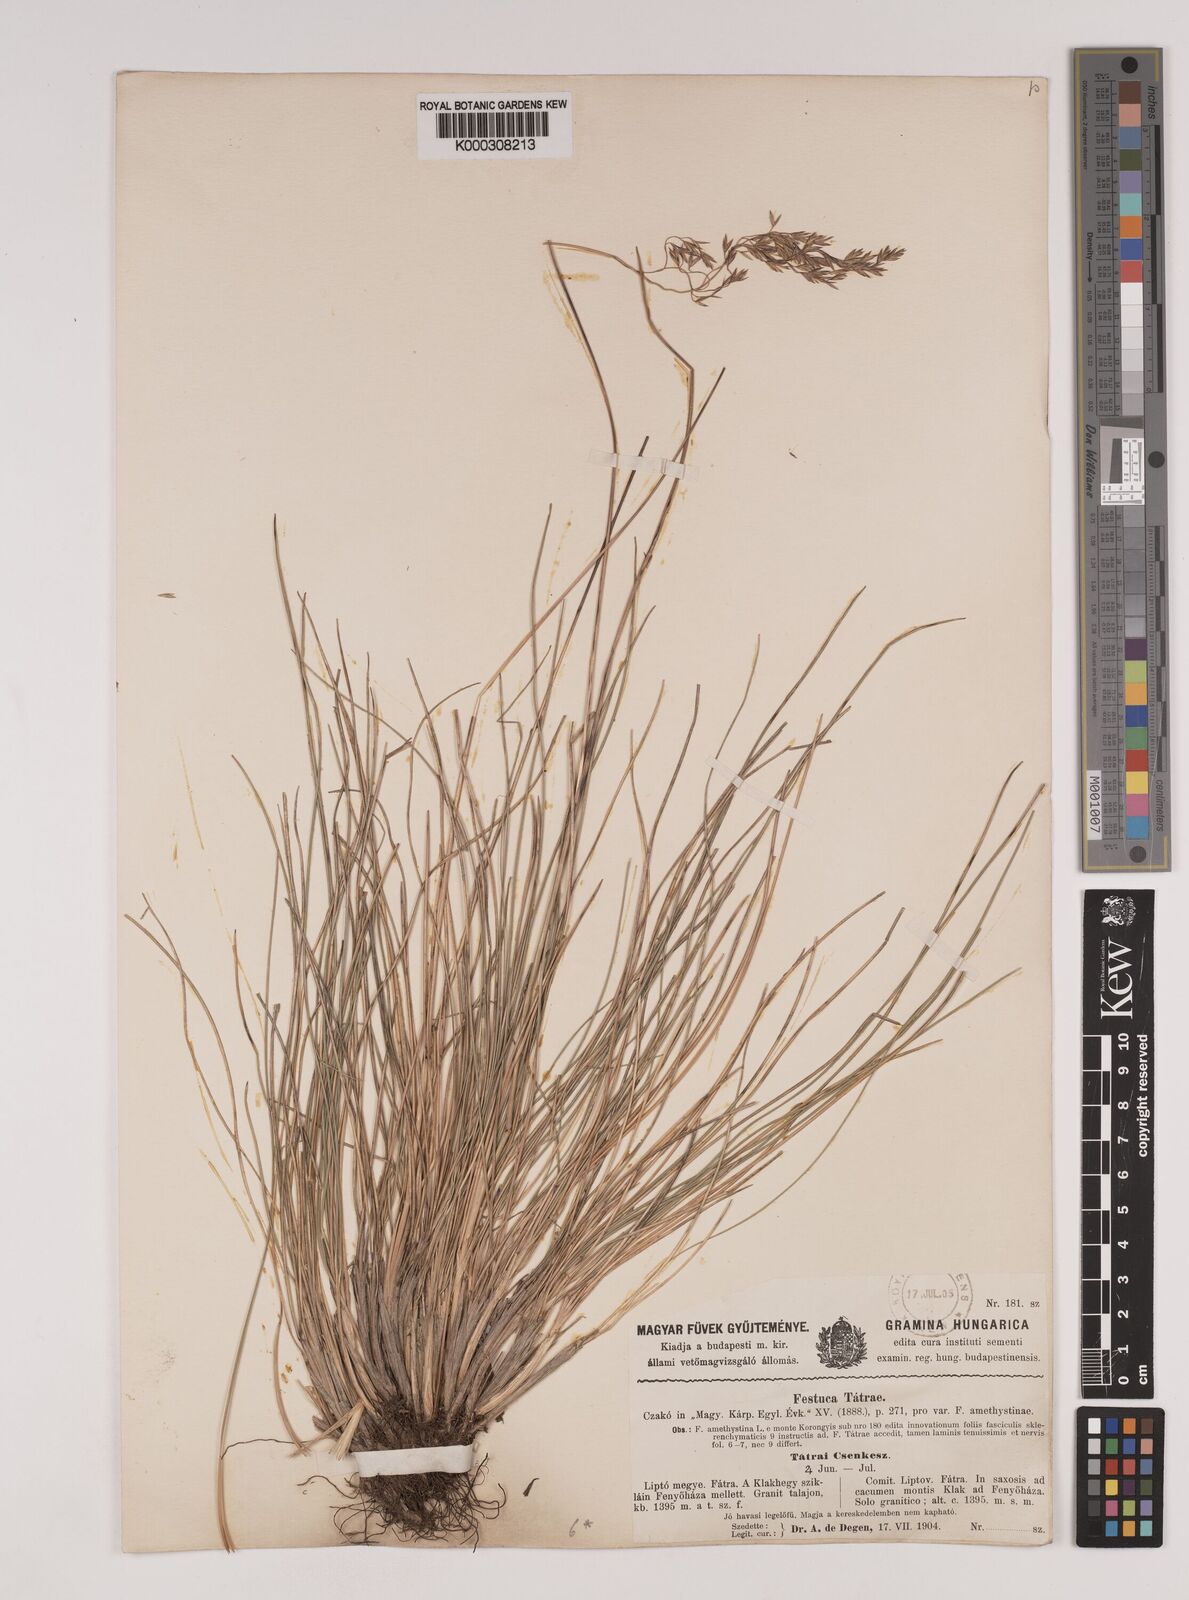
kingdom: Plantae
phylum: Tracheophyta
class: Liliopsida
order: Poales
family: Poaceae
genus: Festuca
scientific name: Festuca
